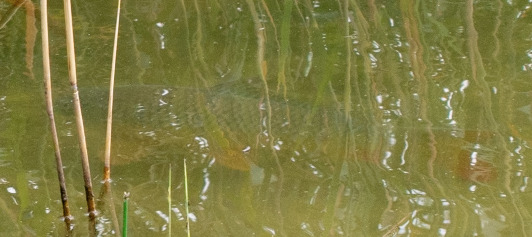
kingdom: Animalia
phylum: Chordata
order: Cypriniformes
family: Cyprinidae
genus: Cyprinus
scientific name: Cyprinus carpio
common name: Karpe
